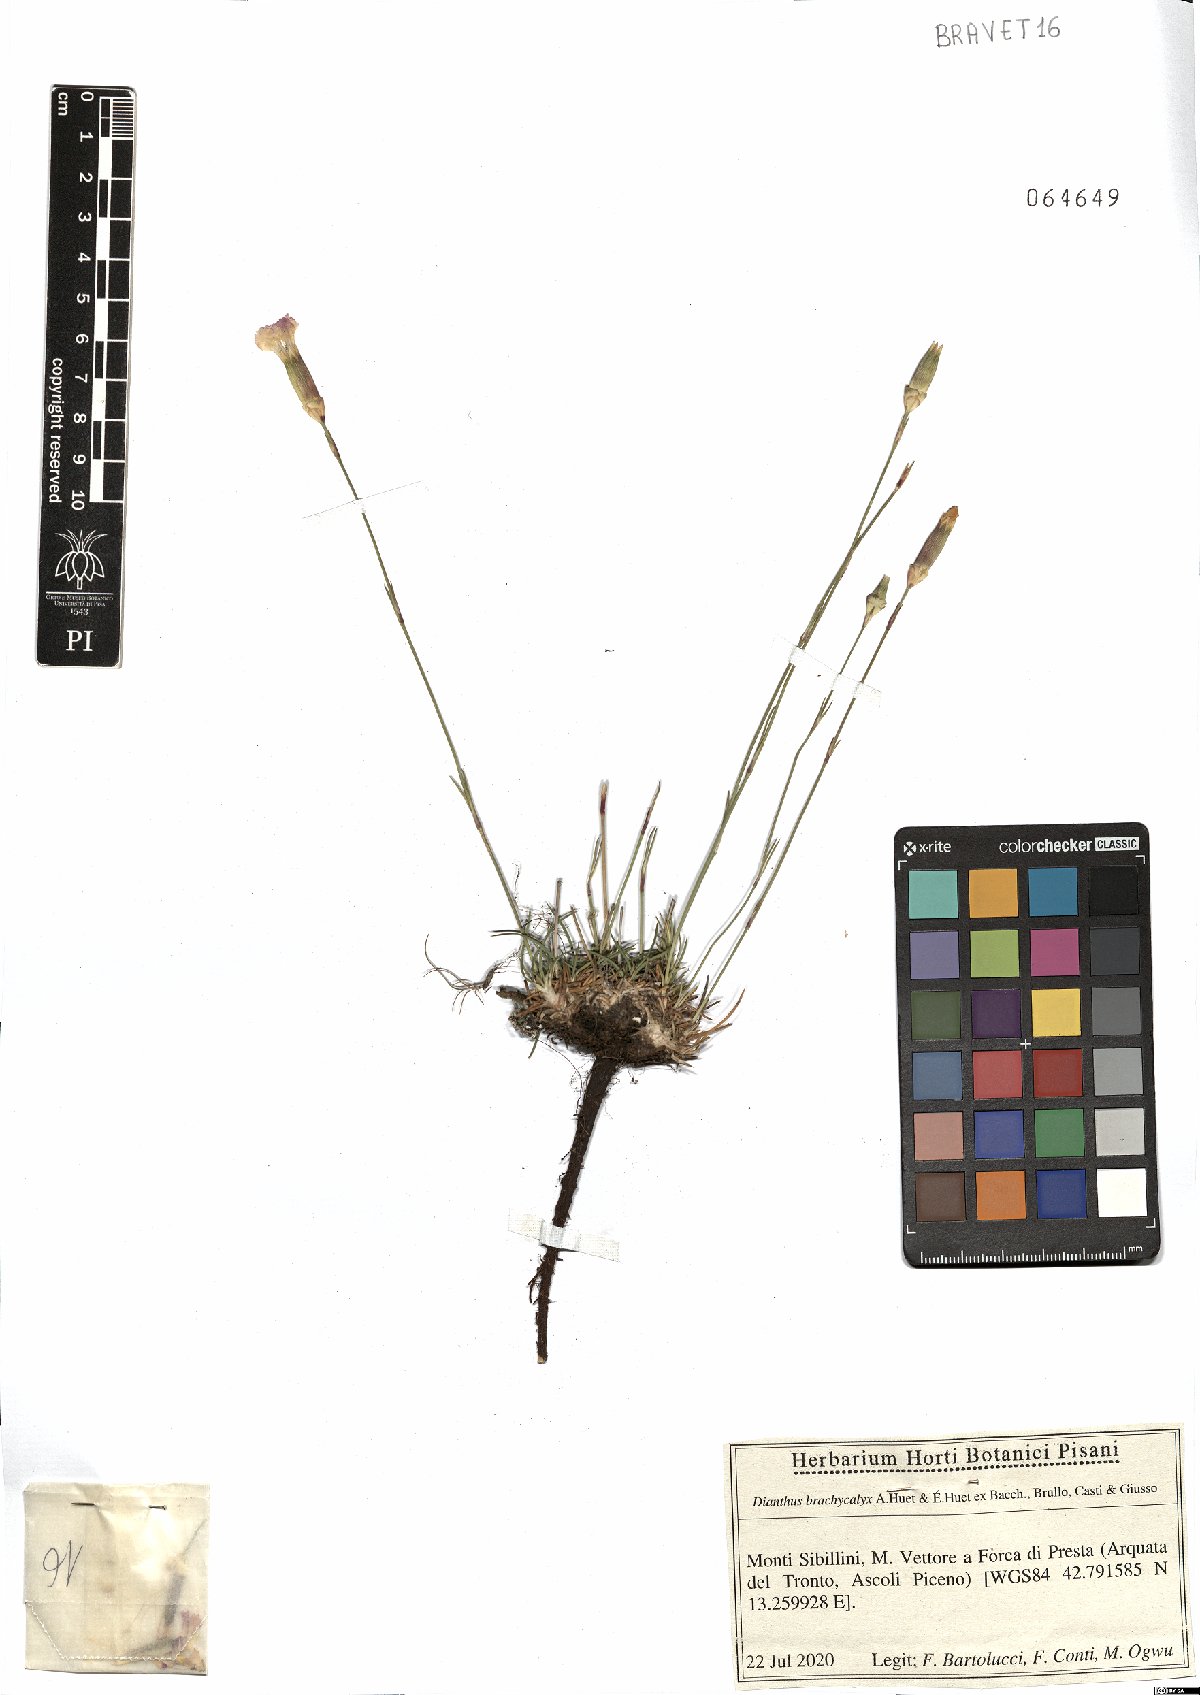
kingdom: Plantae
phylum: Tracheophyta
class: Magnoliopsida
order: Caryophyllales
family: Caryophyllaceae
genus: Dianthus
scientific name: Dianthus brachycalyx
